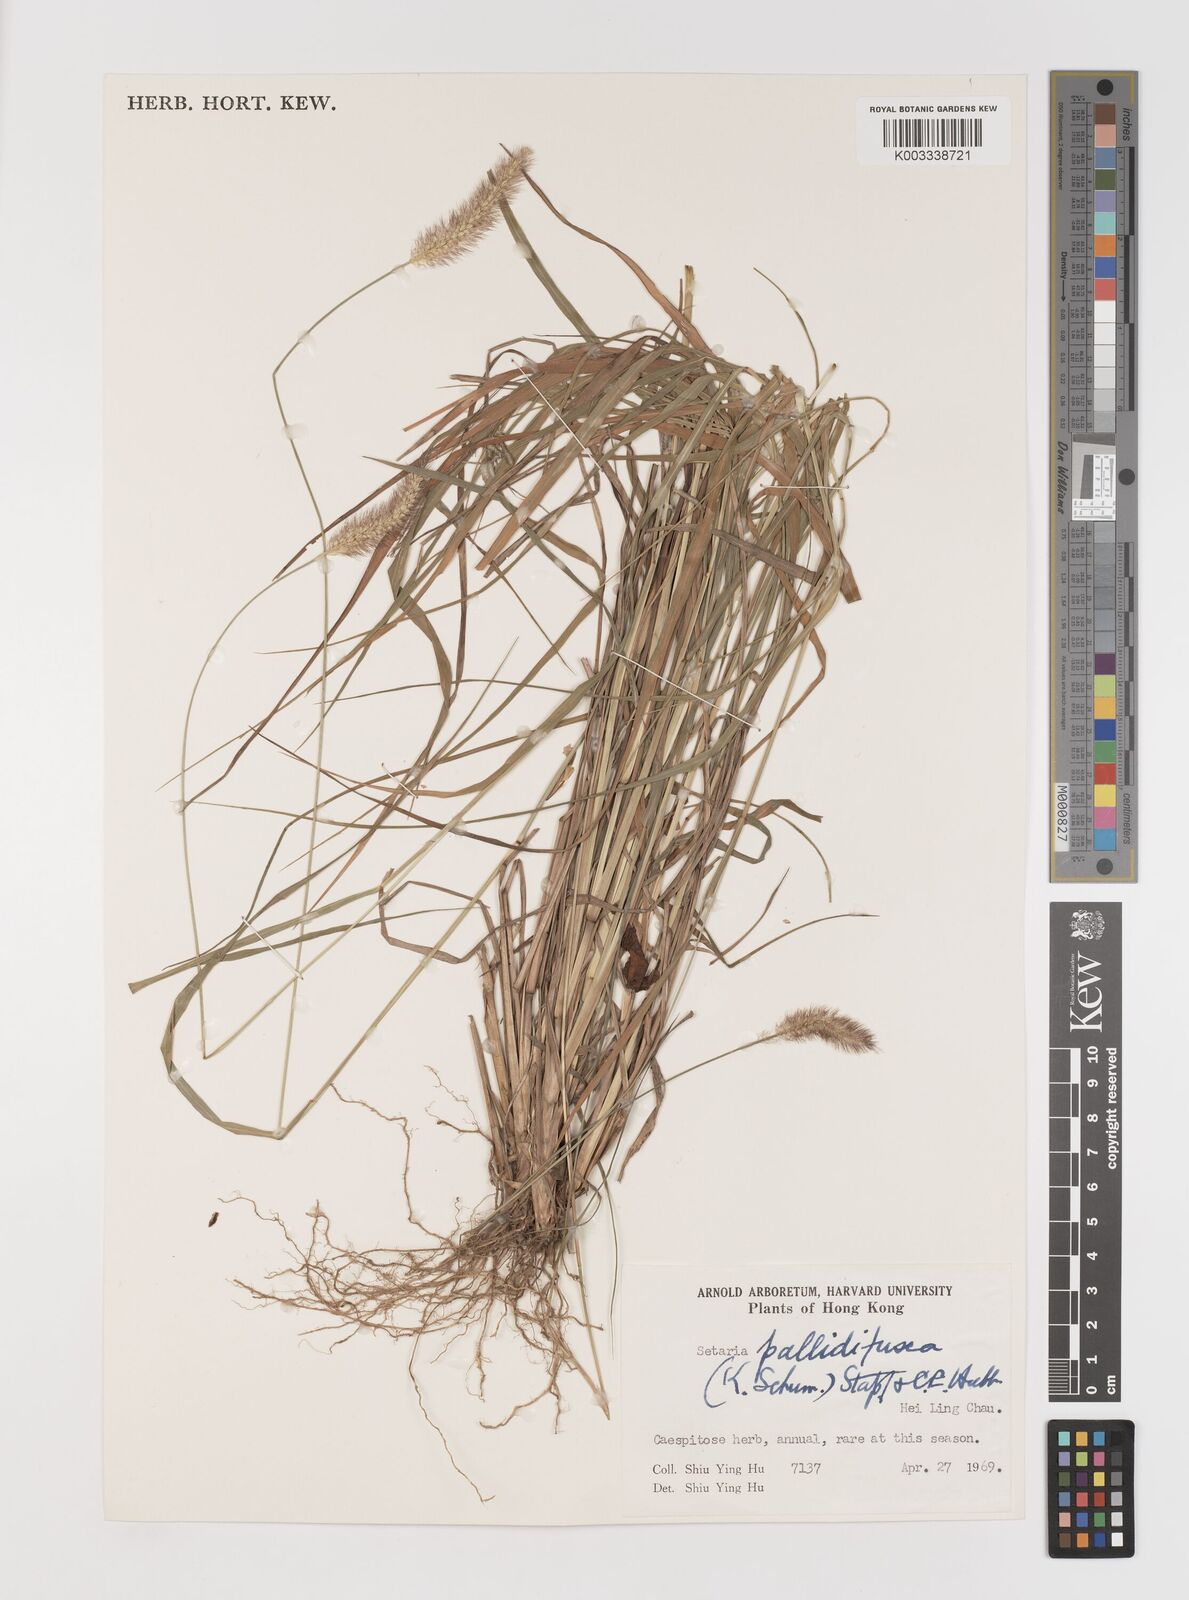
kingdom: Plantae
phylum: Tracheophyta
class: Liliopsida
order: Poales
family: Poaceae
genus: Setaria
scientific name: Setaria parviflora
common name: Knotroot bristle-grass
